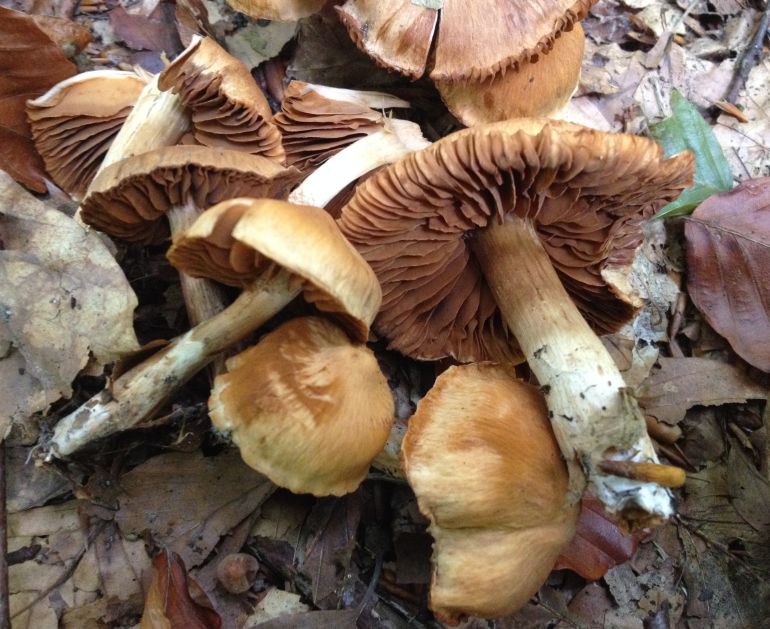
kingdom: Fungi
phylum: Basidiomycota
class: Agaricomycetes
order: Agaricales
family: Cortinariaceae
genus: Cortinarius
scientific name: Cortinarius hinnuleus
